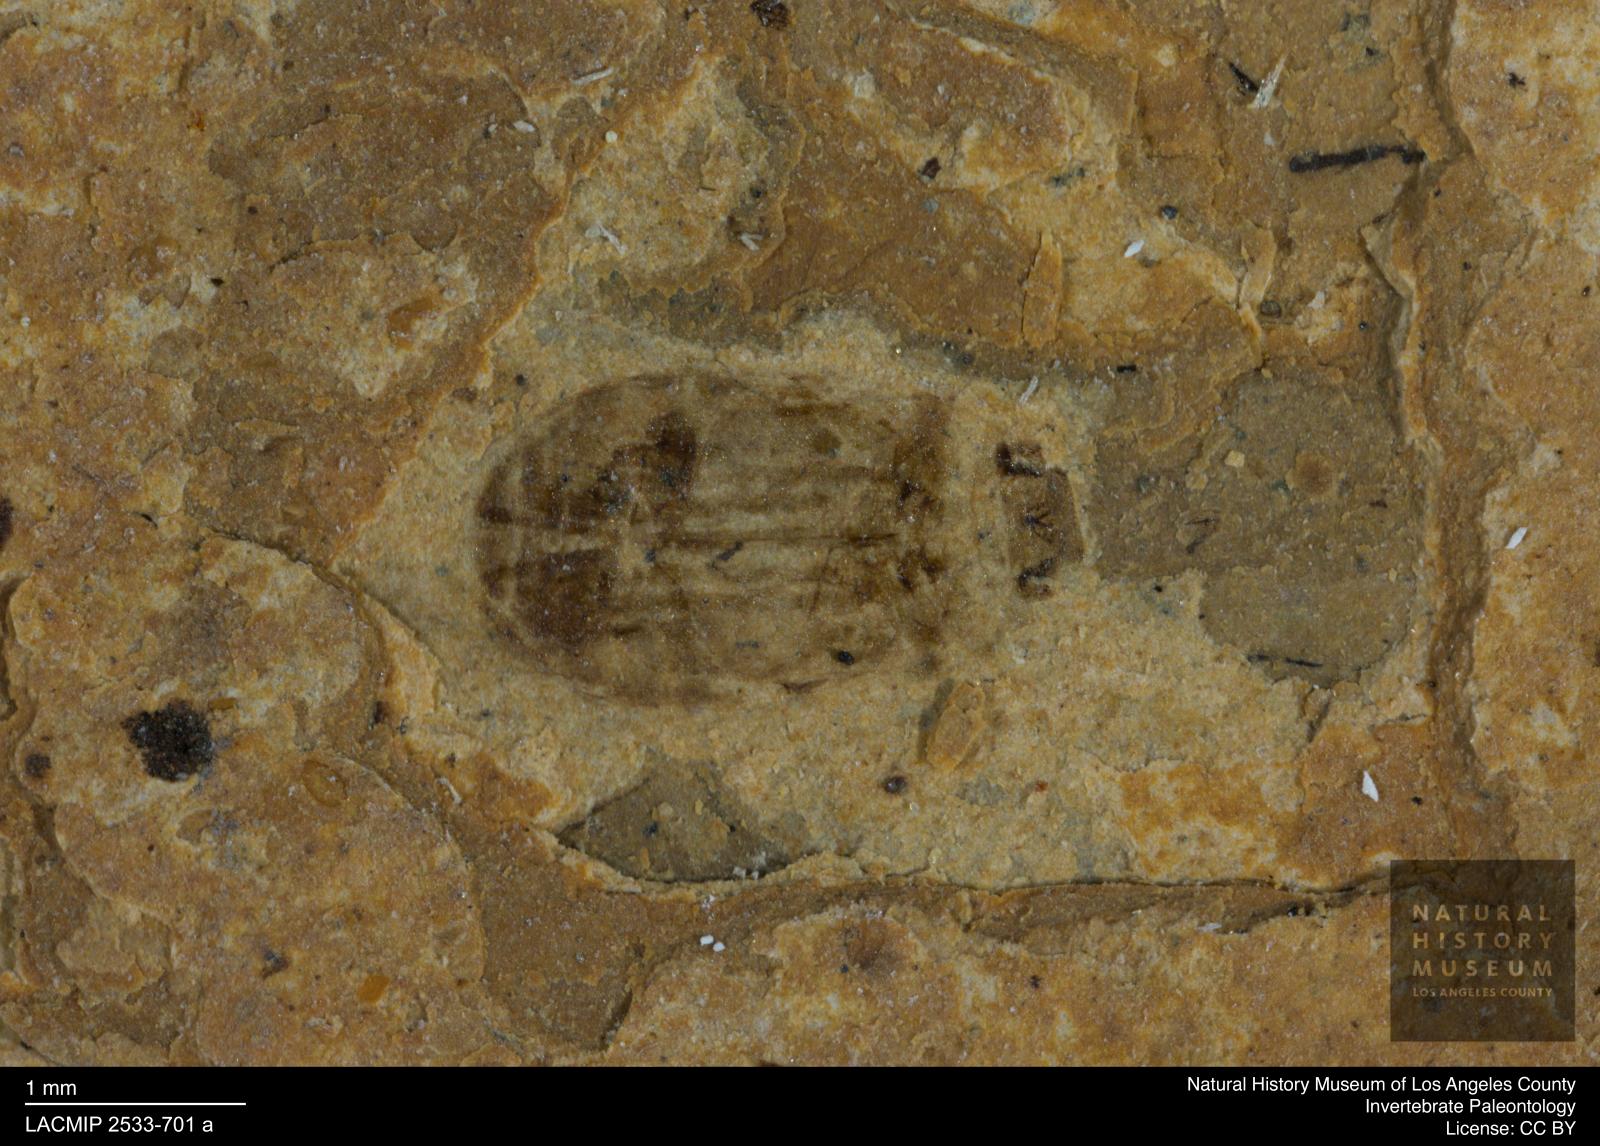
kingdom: Animalia
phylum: Arthropoda
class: Insecta
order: Coleoptera
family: Dytiscidae
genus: Oreodytes
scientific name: Oreodytes cryptolineatus
